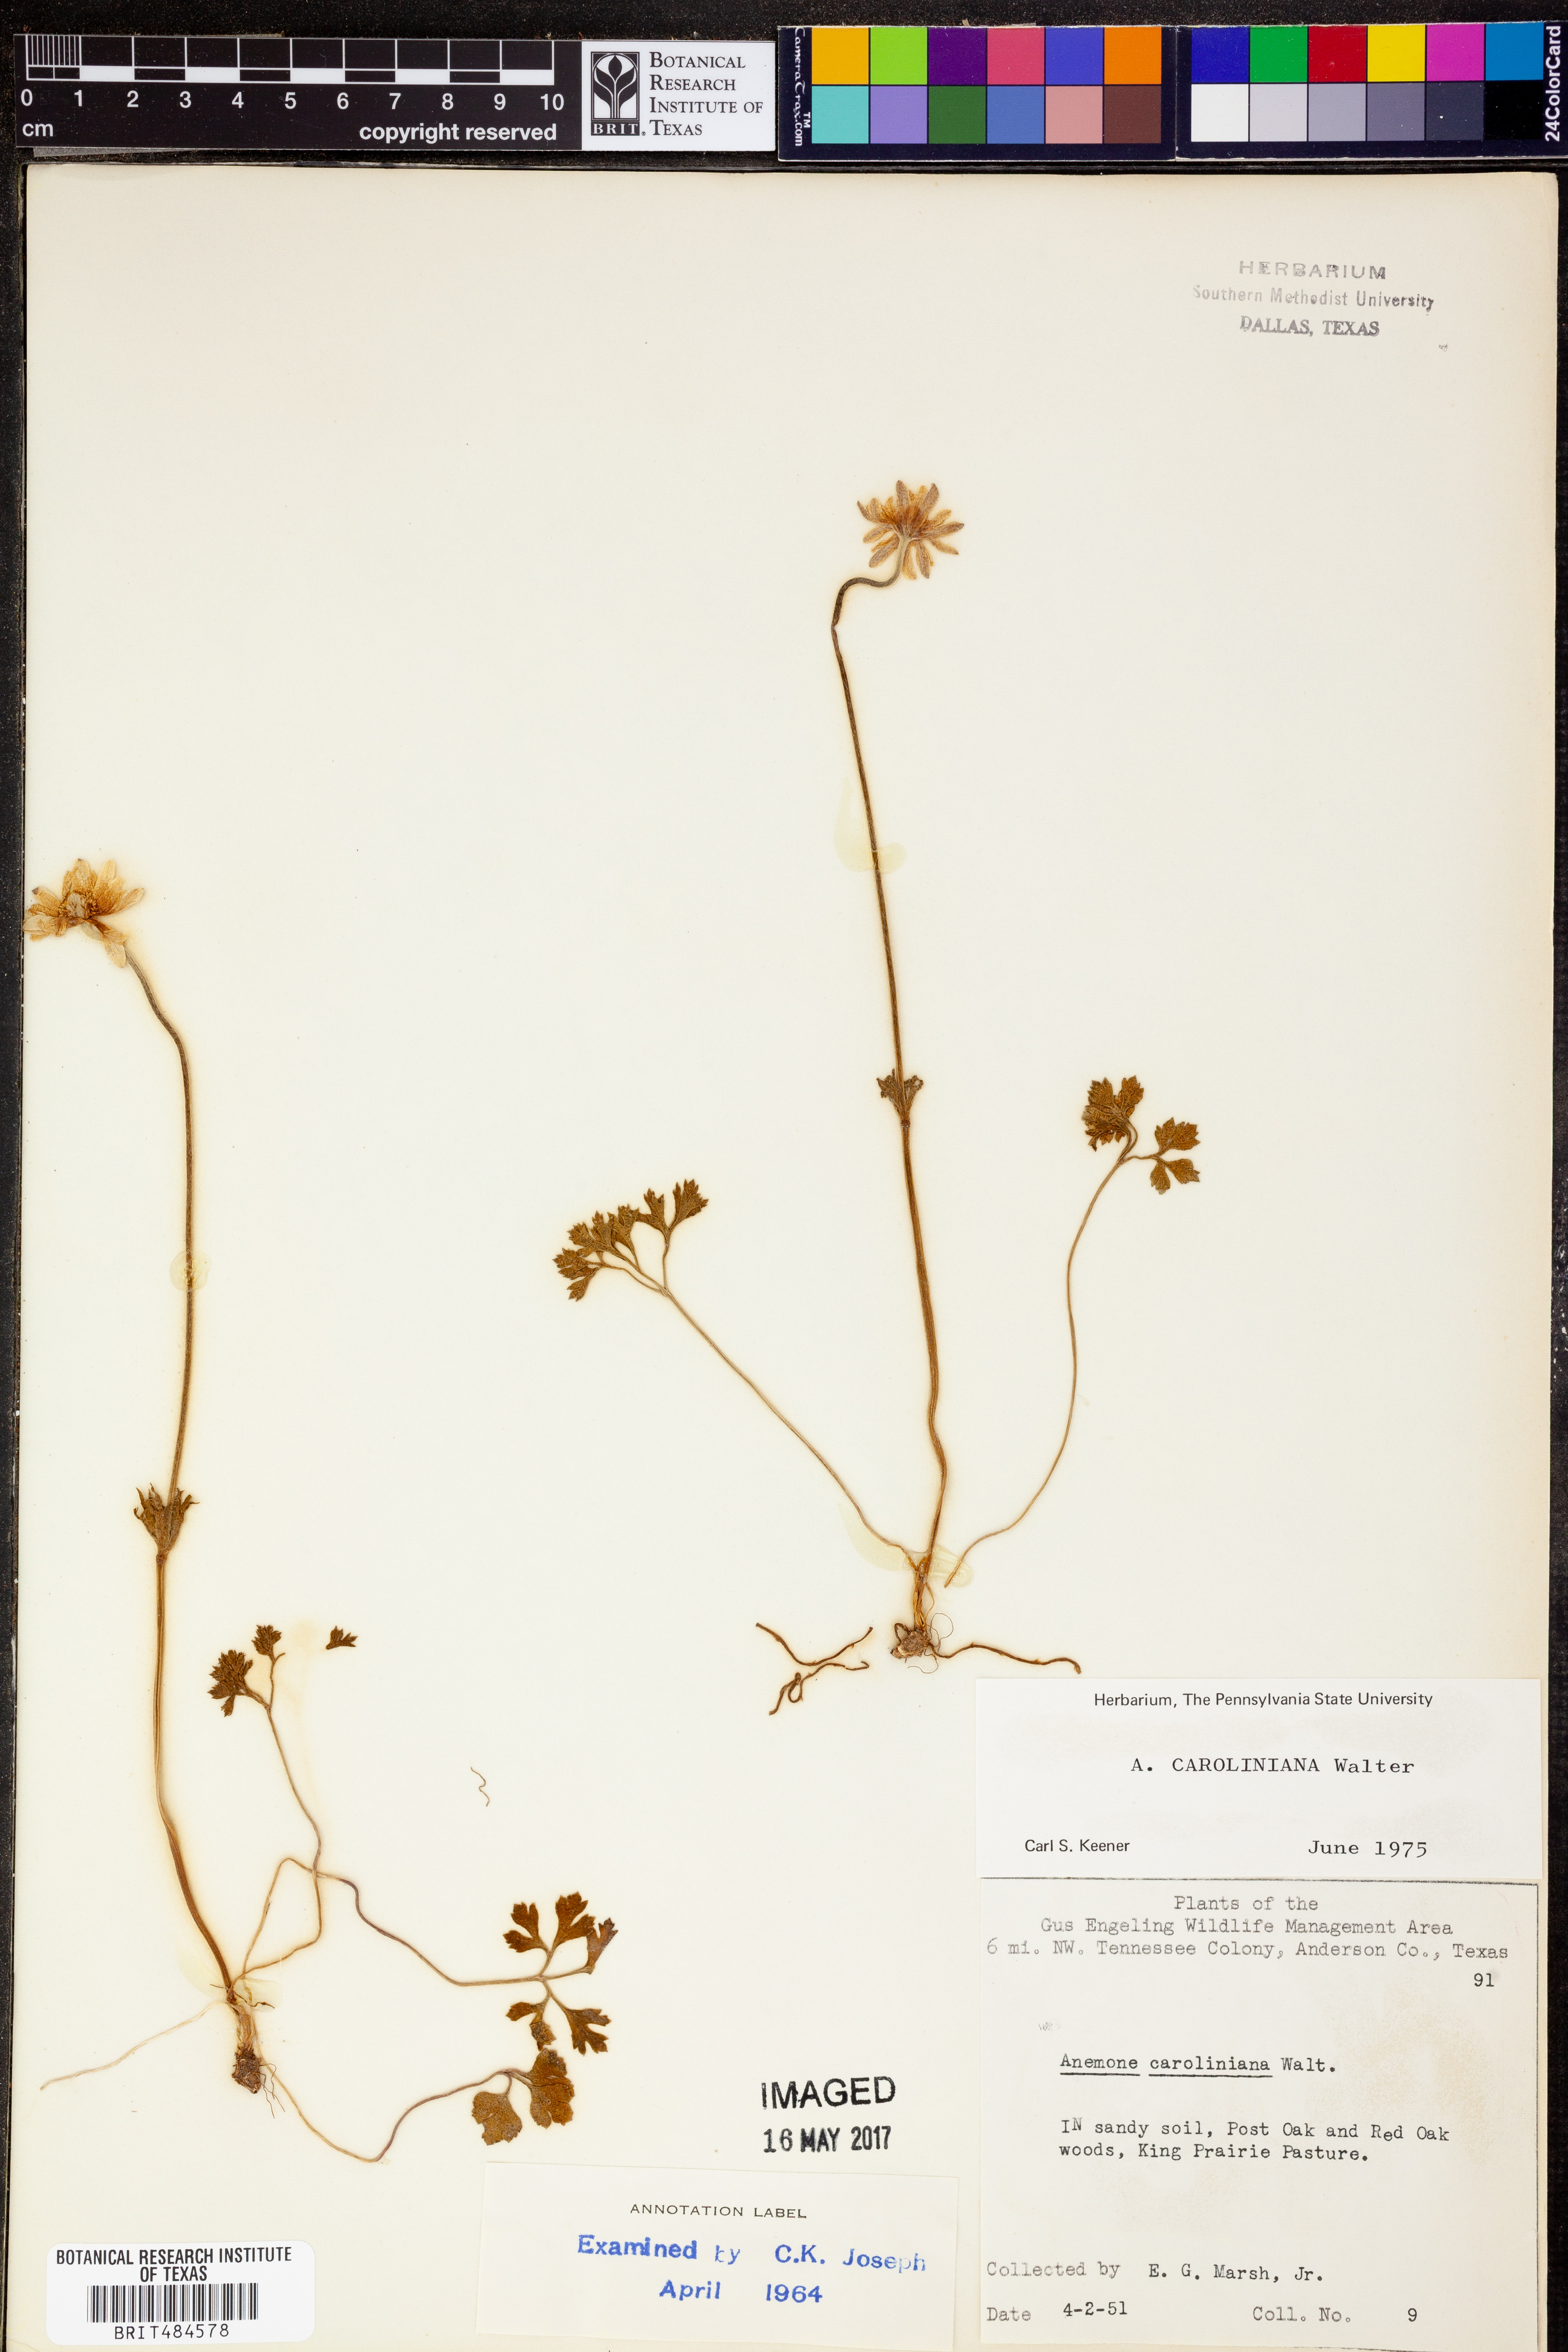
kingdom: Plantae
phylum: Tracheophyta
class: Magnoliopsida
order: Ranunculales
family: Ranunculaceae
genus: Anemone
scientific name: Anemone caroliniana
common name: Carolina anemone
